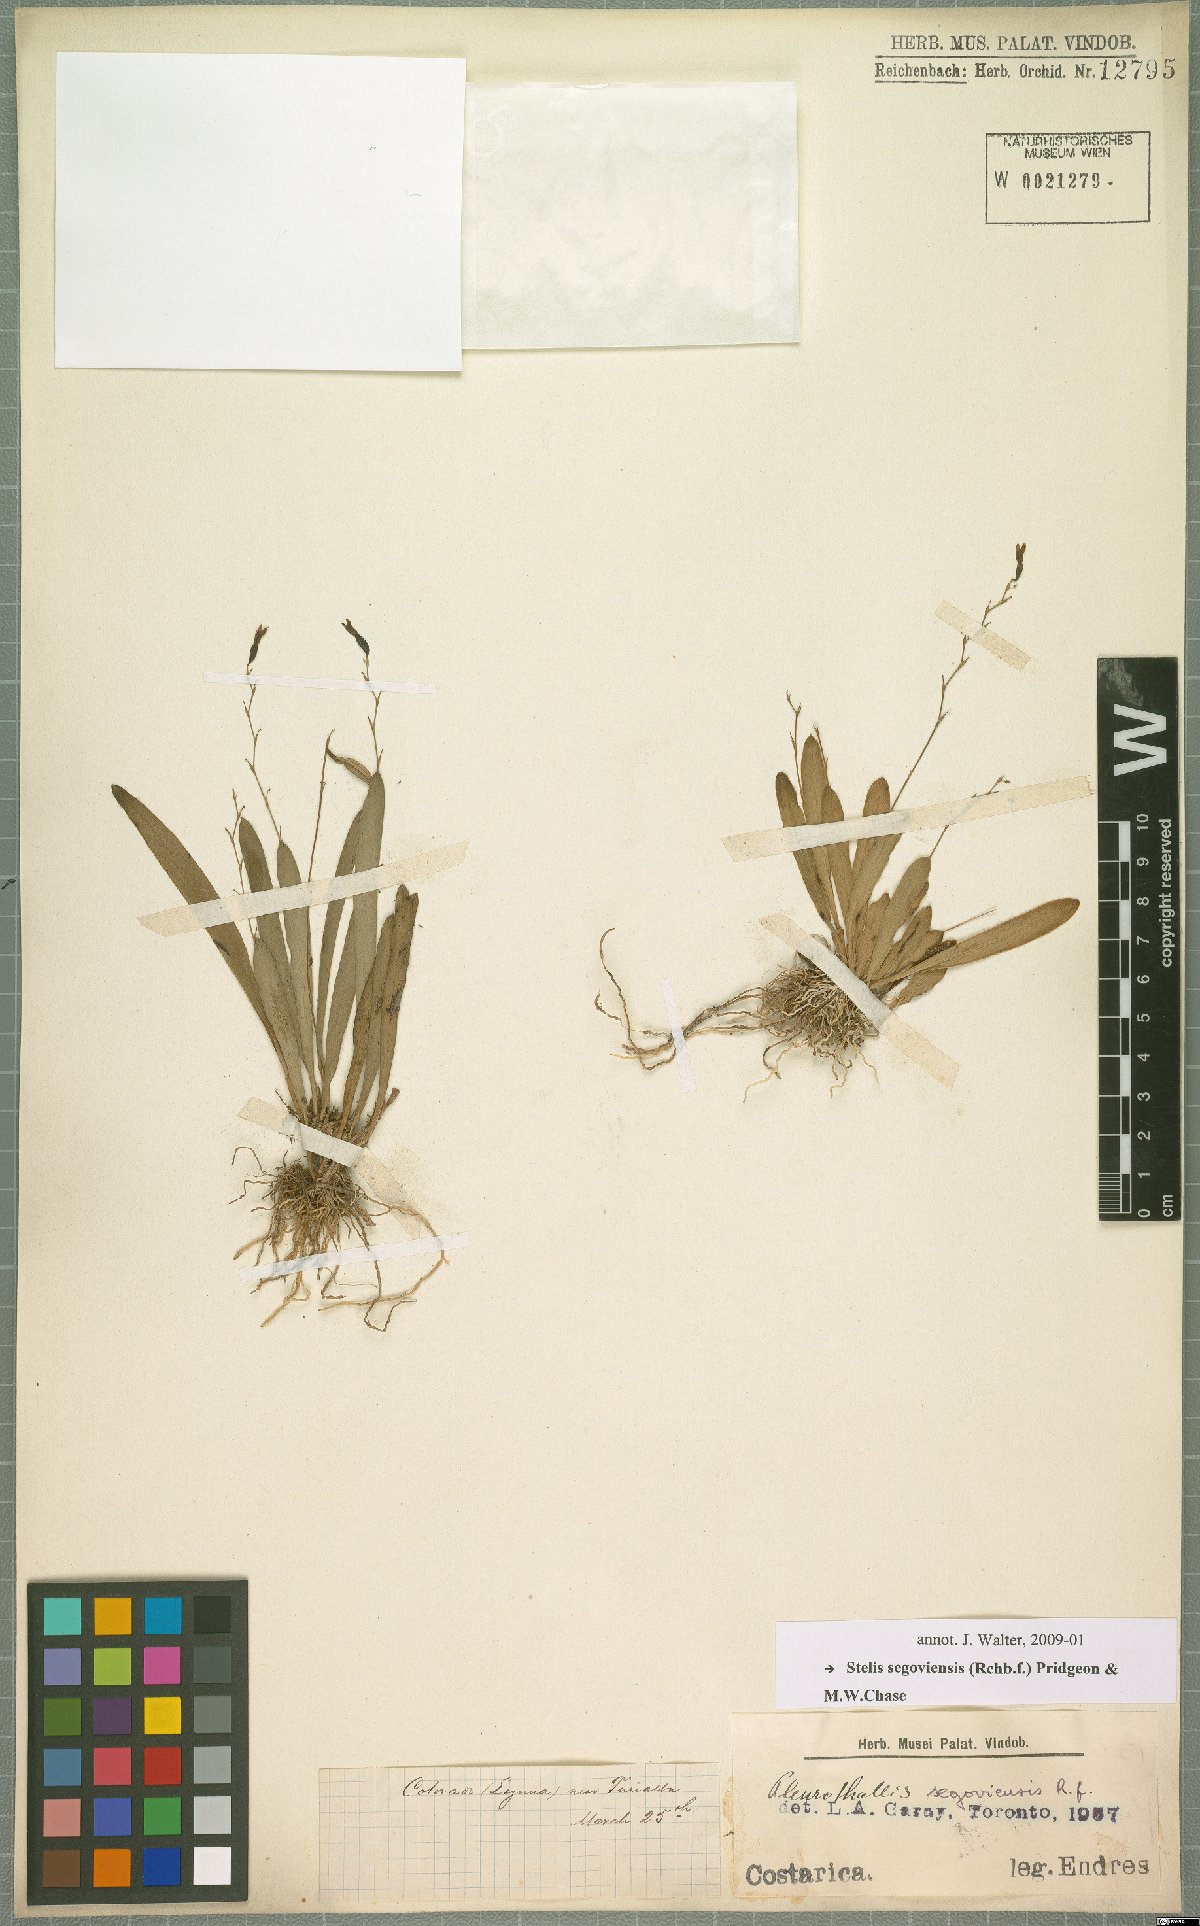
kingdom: Plantae
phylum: Tracheophyta
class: Liliopsida
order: Asparagales
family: Orchidaceae
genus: Stelis
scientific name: Stelis segoviensis
